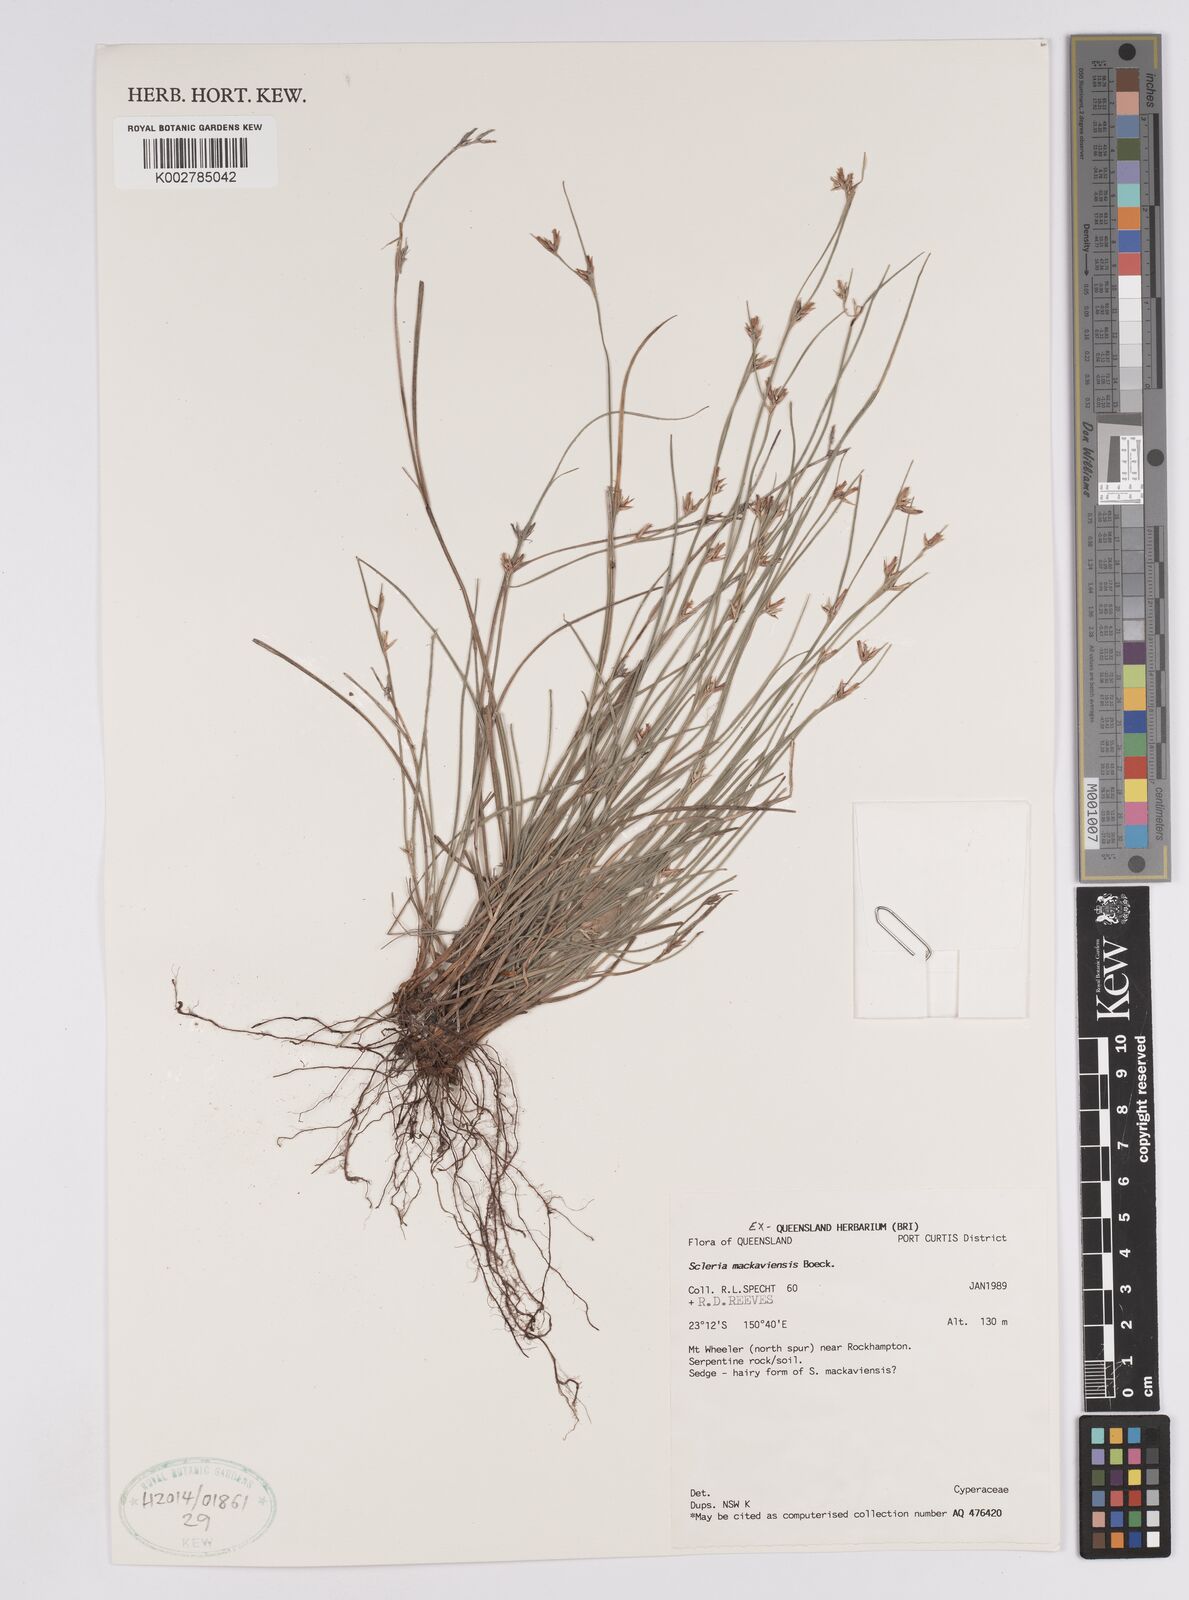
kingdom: Plantae
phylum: Tracheophyta
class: Liliopsida
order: Poales
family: Cyperaceae
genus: Scleria
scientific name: Scleria mackaviensis
